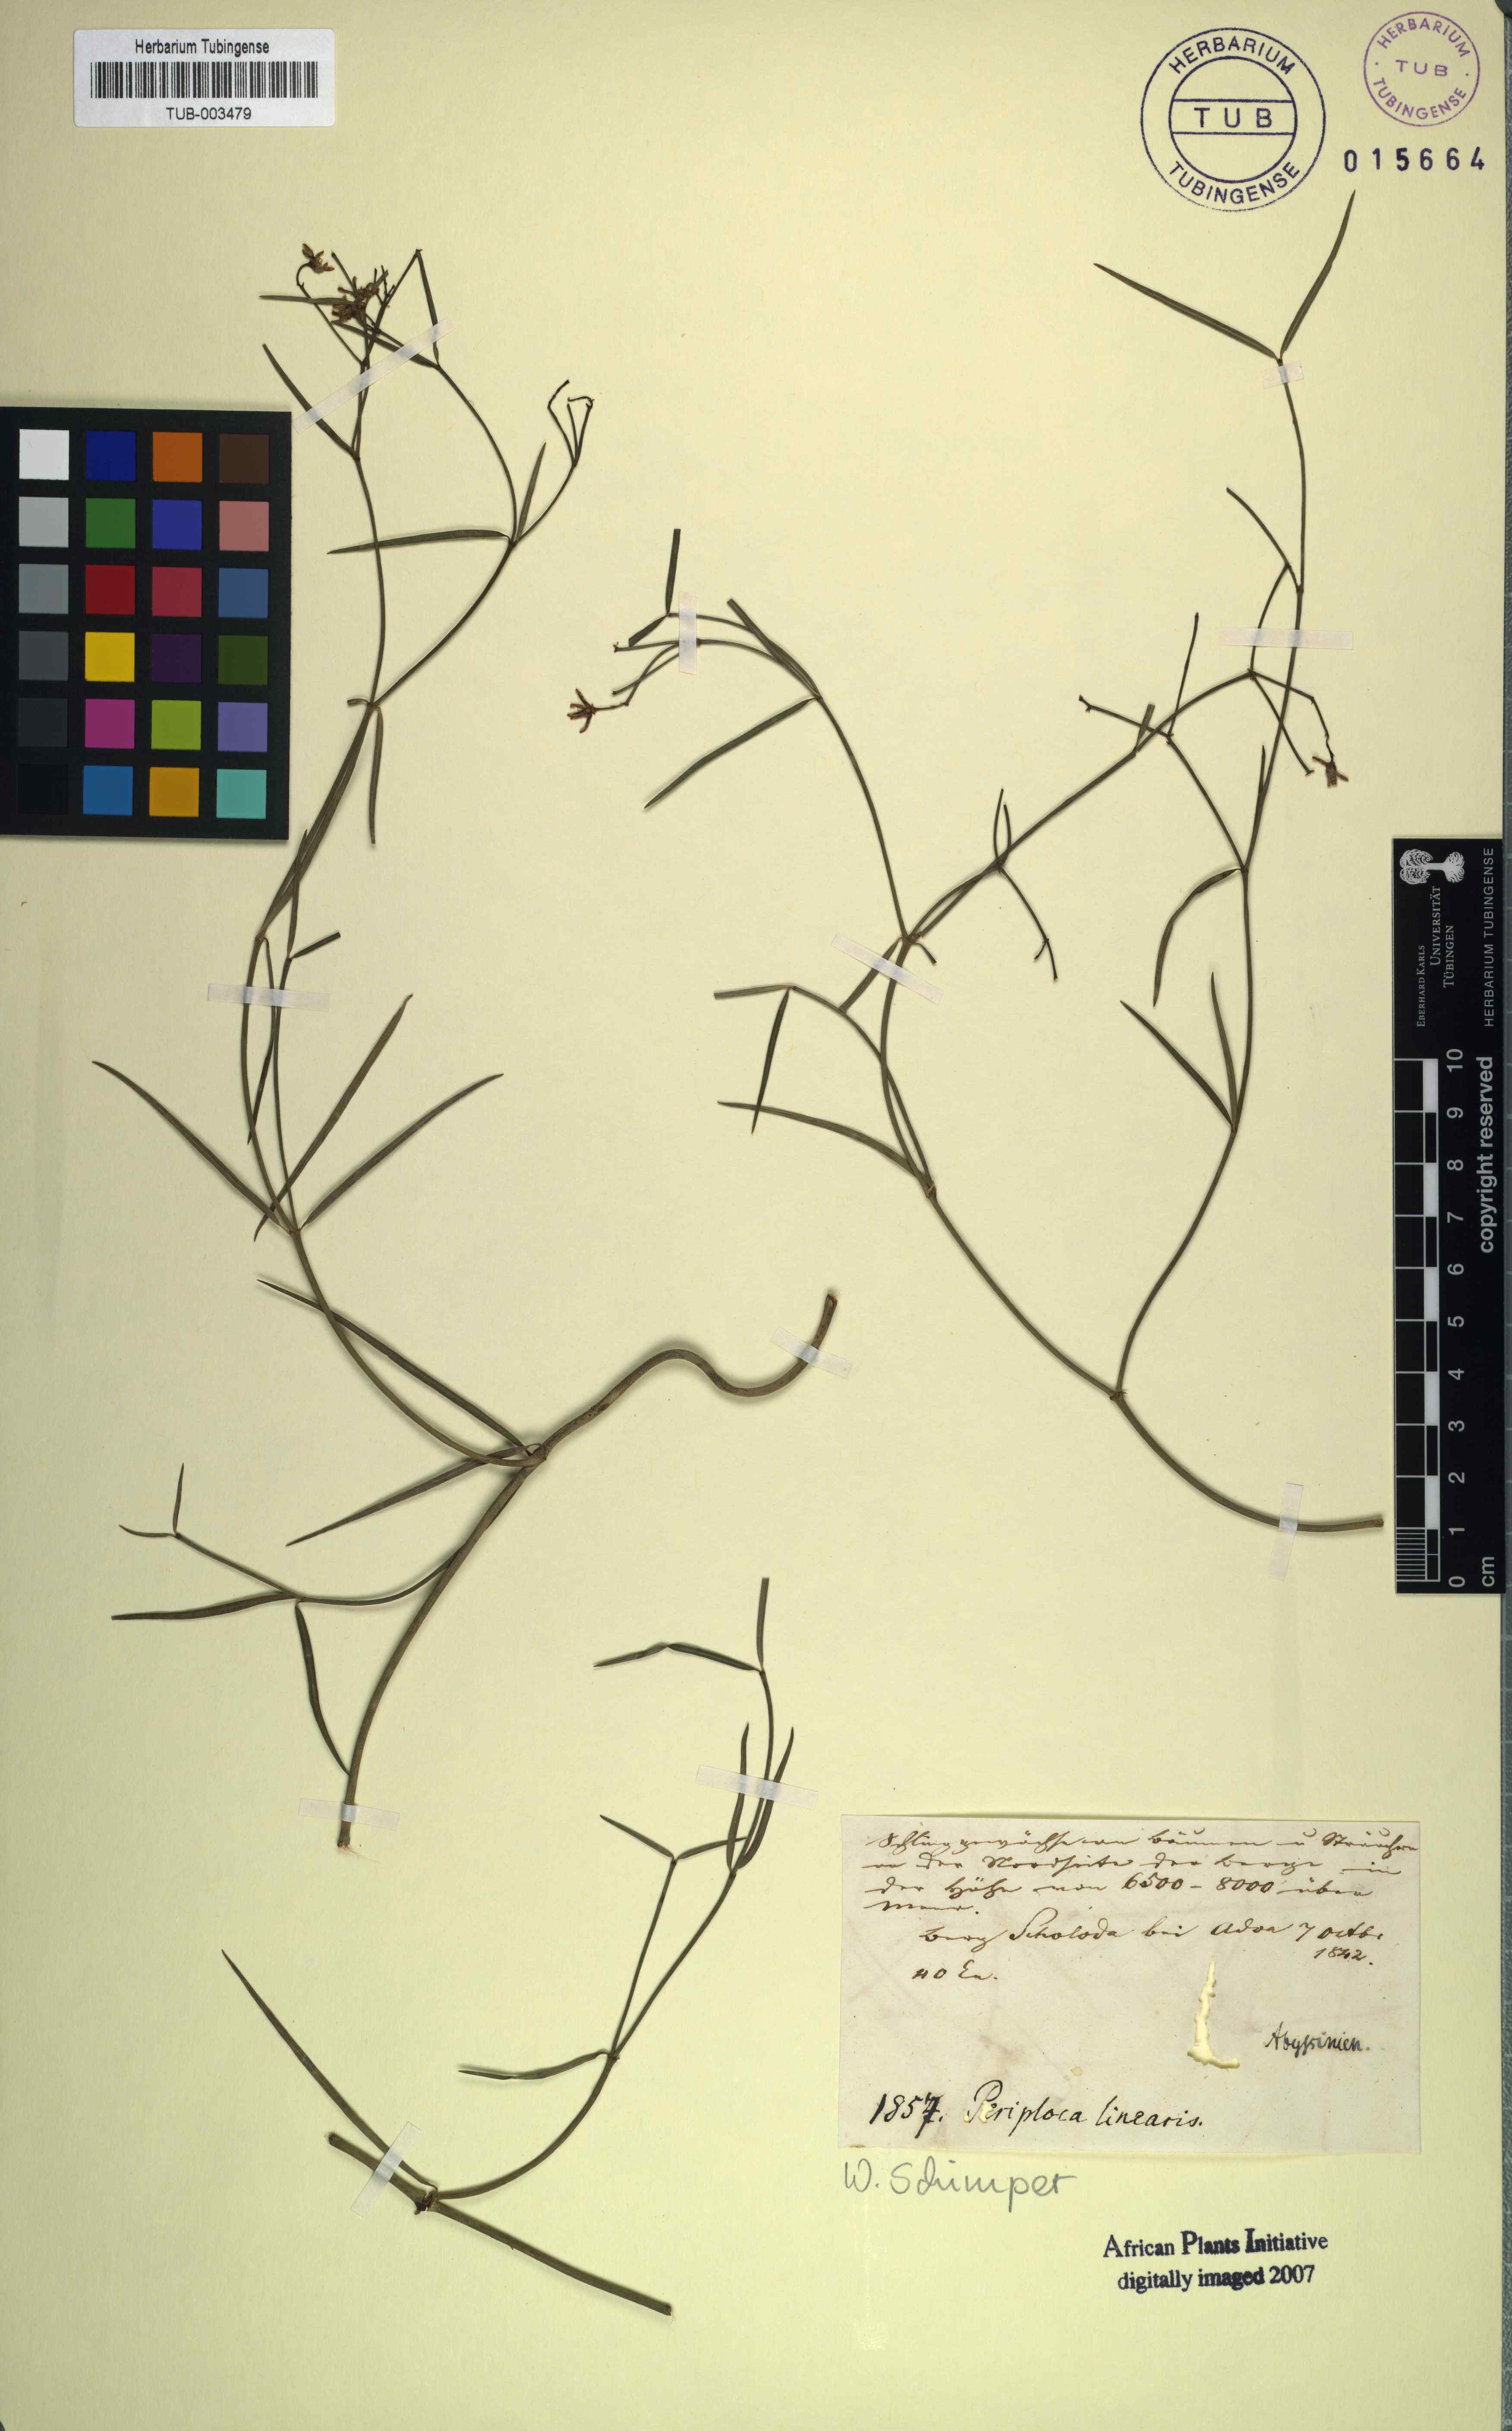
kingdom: Plantae
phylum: Tracheophyta
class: Magnoliopsida
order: Gentianales
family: Apocynaceae
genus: Periploca
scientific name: Periploca linearifolia
